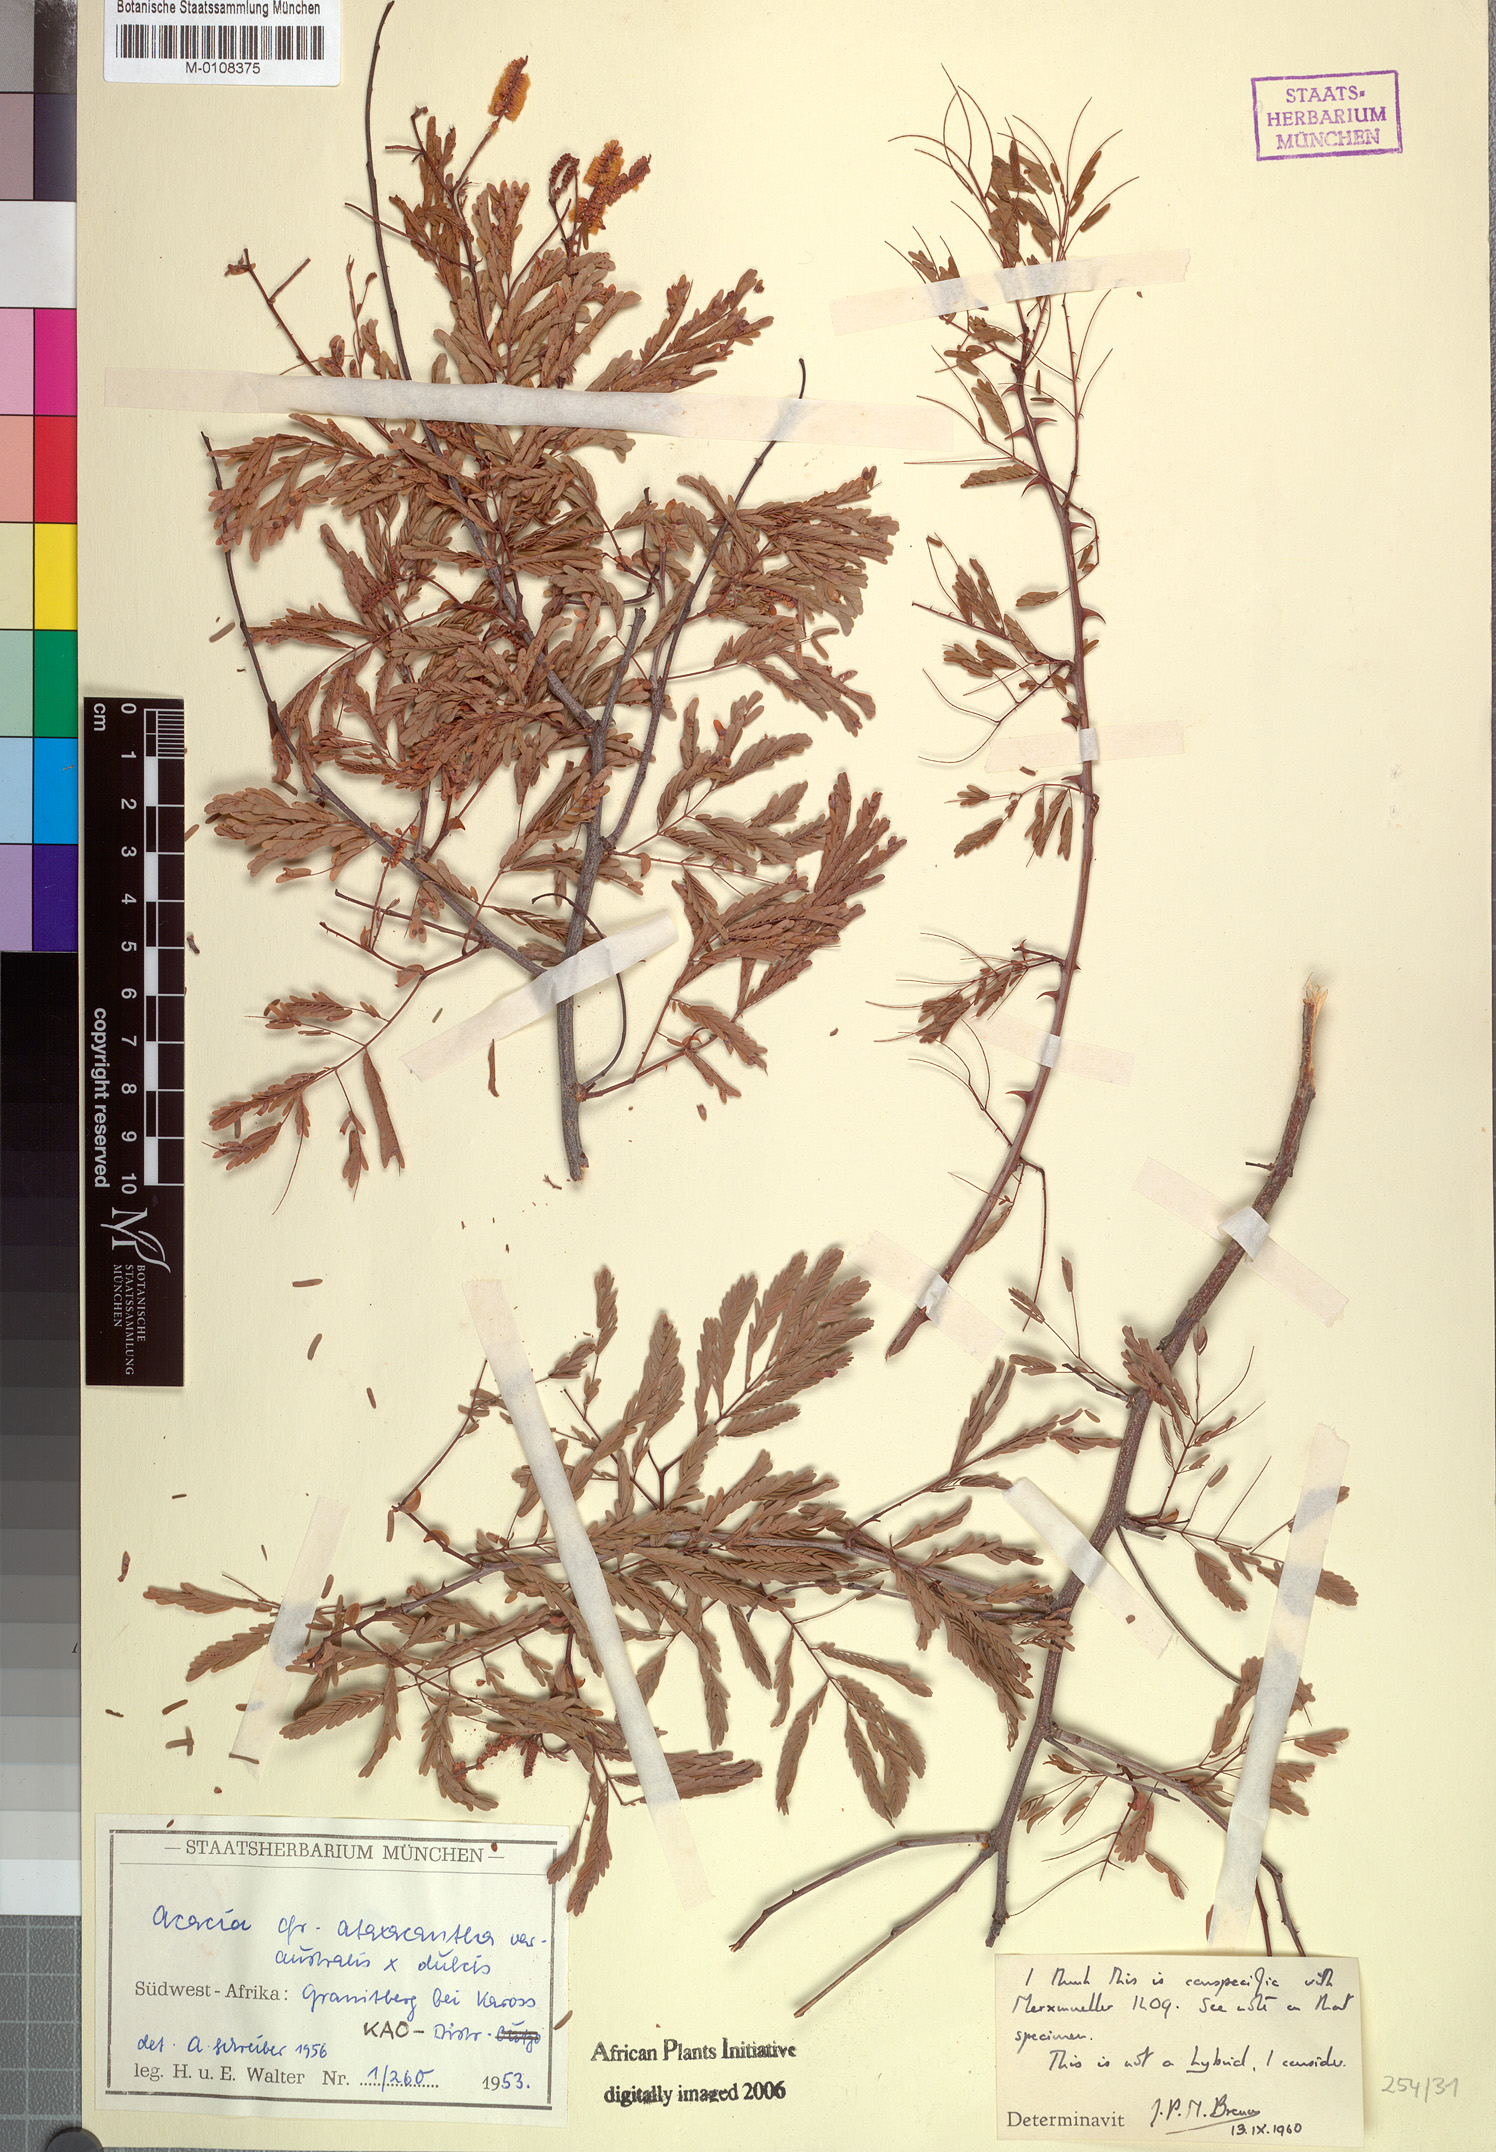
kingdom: Plantae
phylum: Tracheophyta
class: Magnoliopsida
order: Fabales
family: Fabaceae
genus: Senegalia
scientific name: Senegalia ataxacantha
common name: Flame acacia
